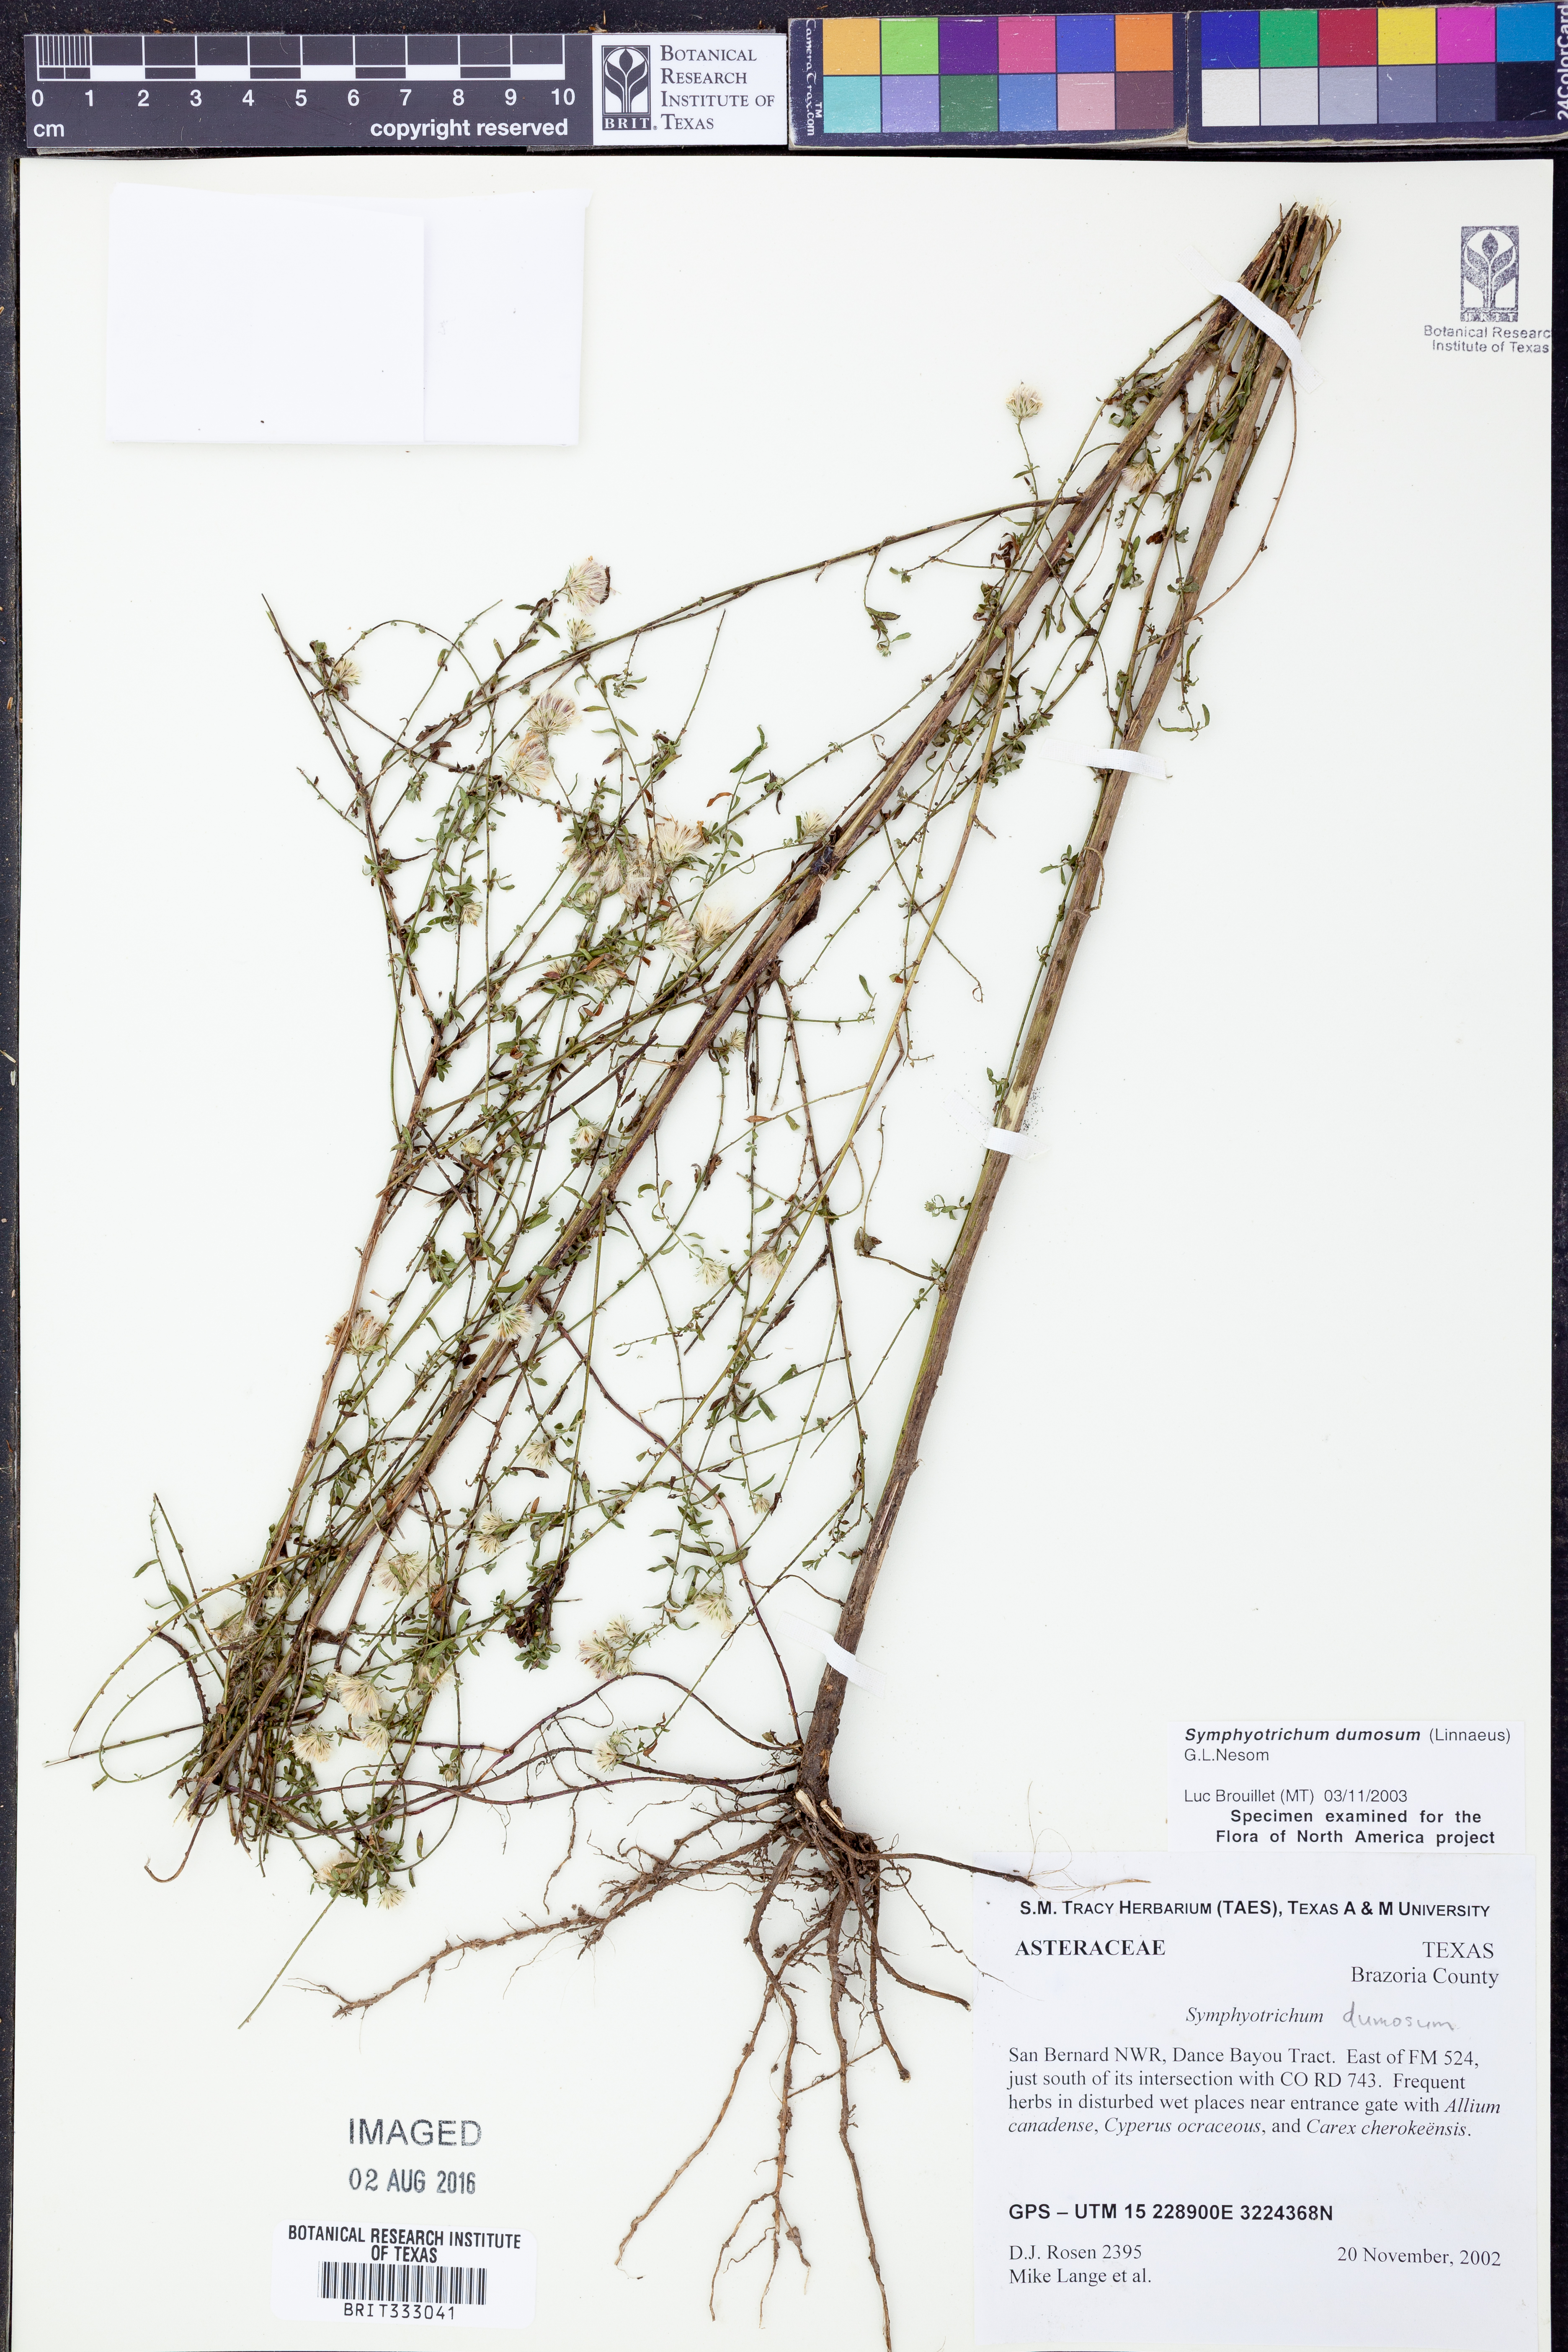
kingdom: Plantae
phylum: Tracheophyta
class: Magnoliopsida
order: Asterales
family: Asteraceae
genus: Symphyotrichum
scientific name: Symphyotrichum dumosum
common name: Bushy aster
